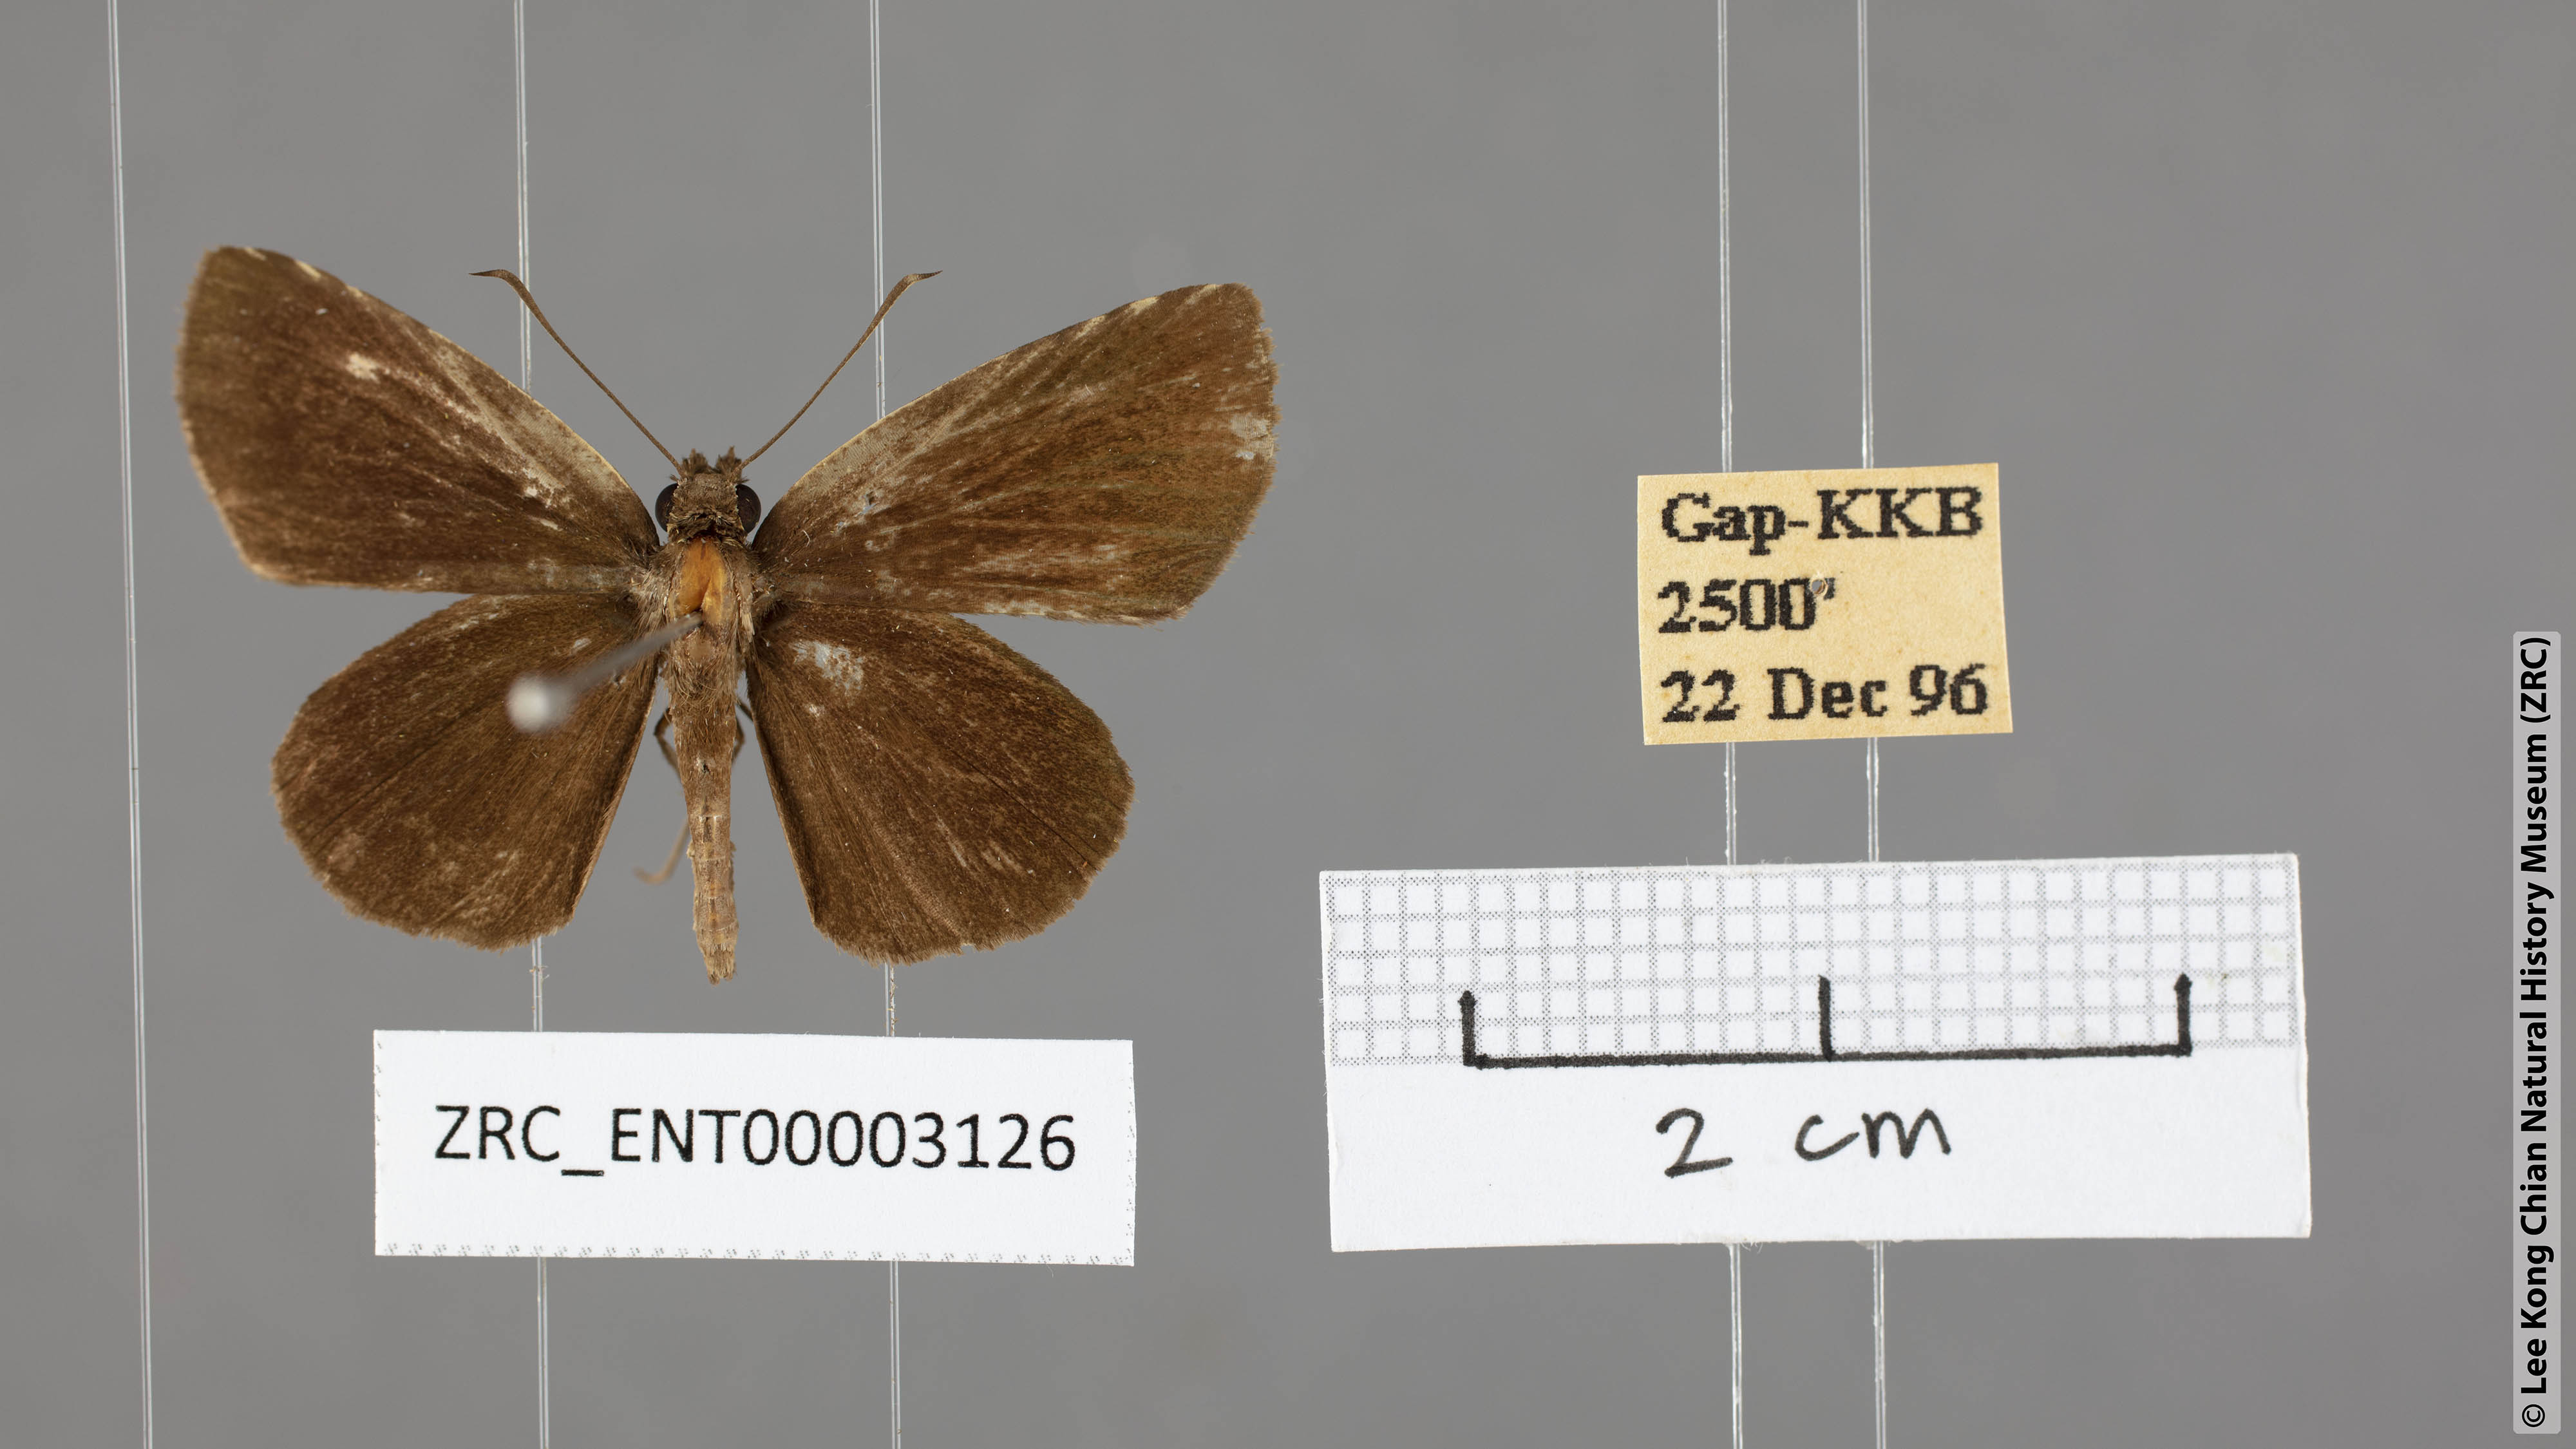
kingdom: Animalia
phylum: Arthropoda
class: Insecta
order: Lepidoptera
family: Hesperiidae
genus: Astictopterus
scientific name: Astictopterus jama
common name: Forest hopper
